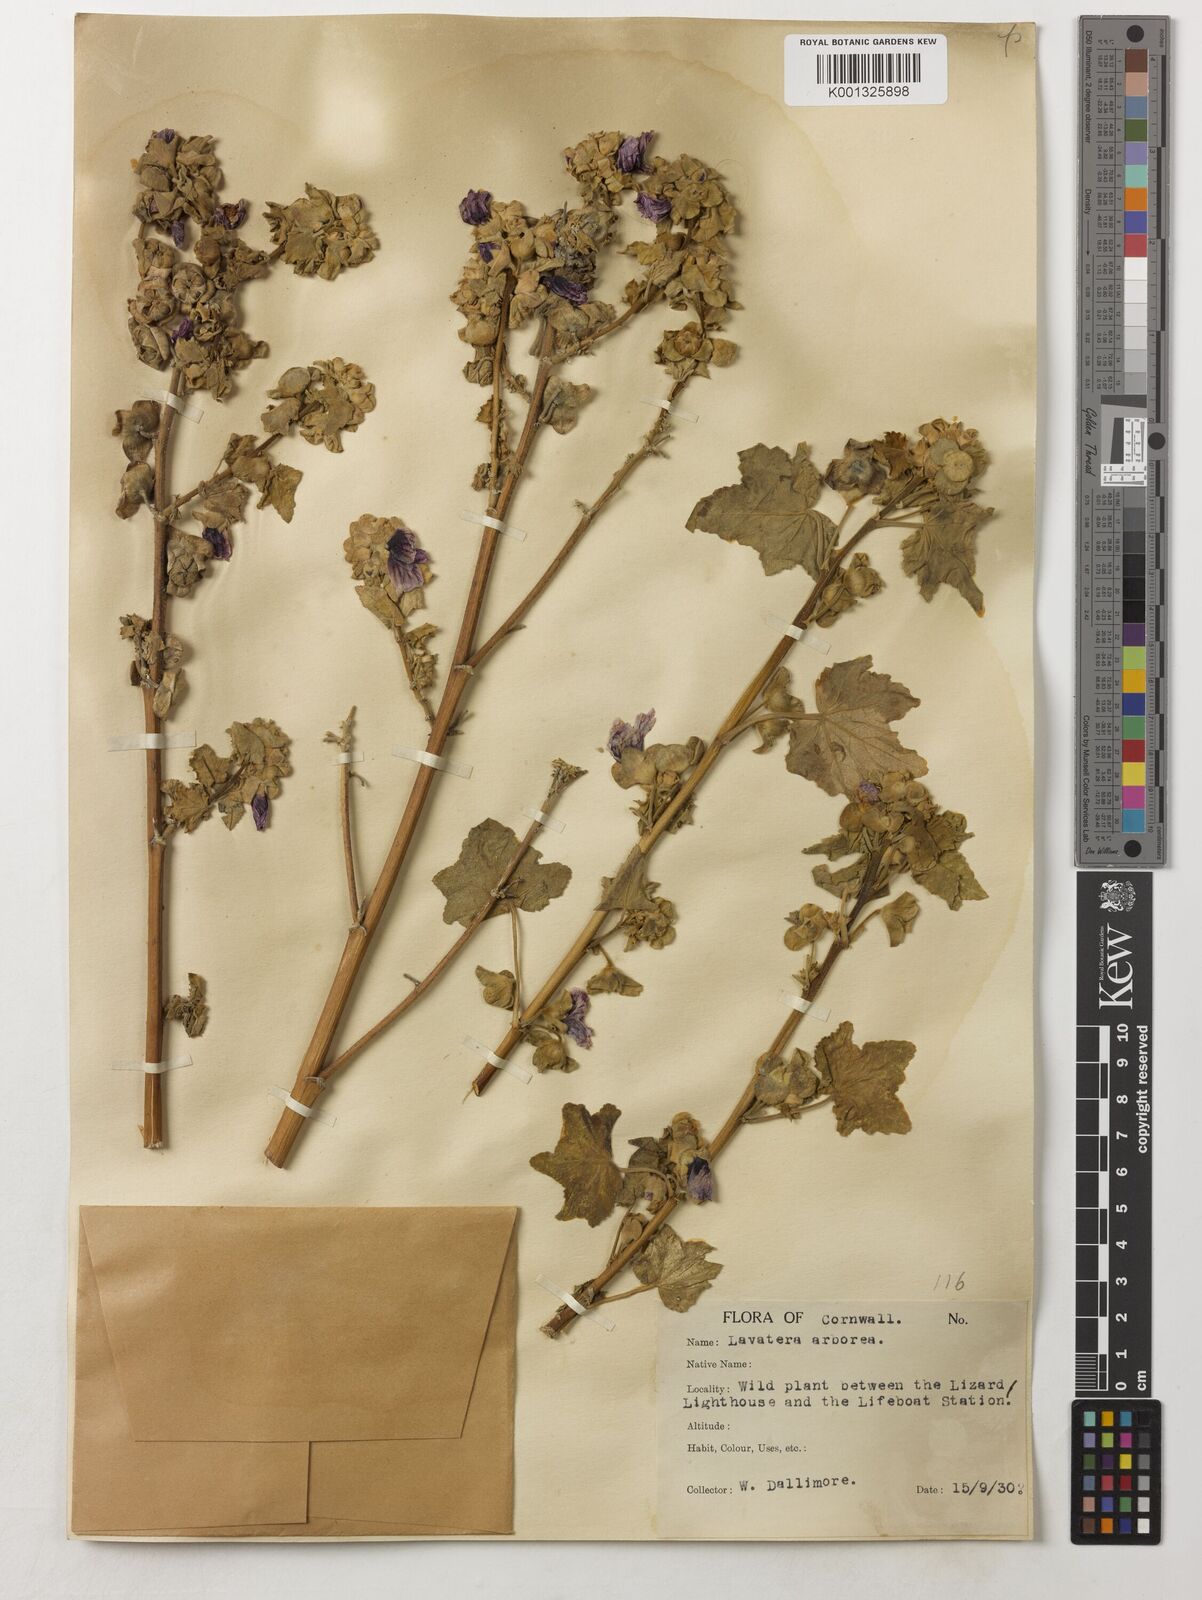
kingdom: Plantae
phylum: Tracheophyta
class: Magnoliopsida
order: Malvales
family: Malvaceae
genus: Malva
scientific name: Malva arborea
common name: Tree mallow
